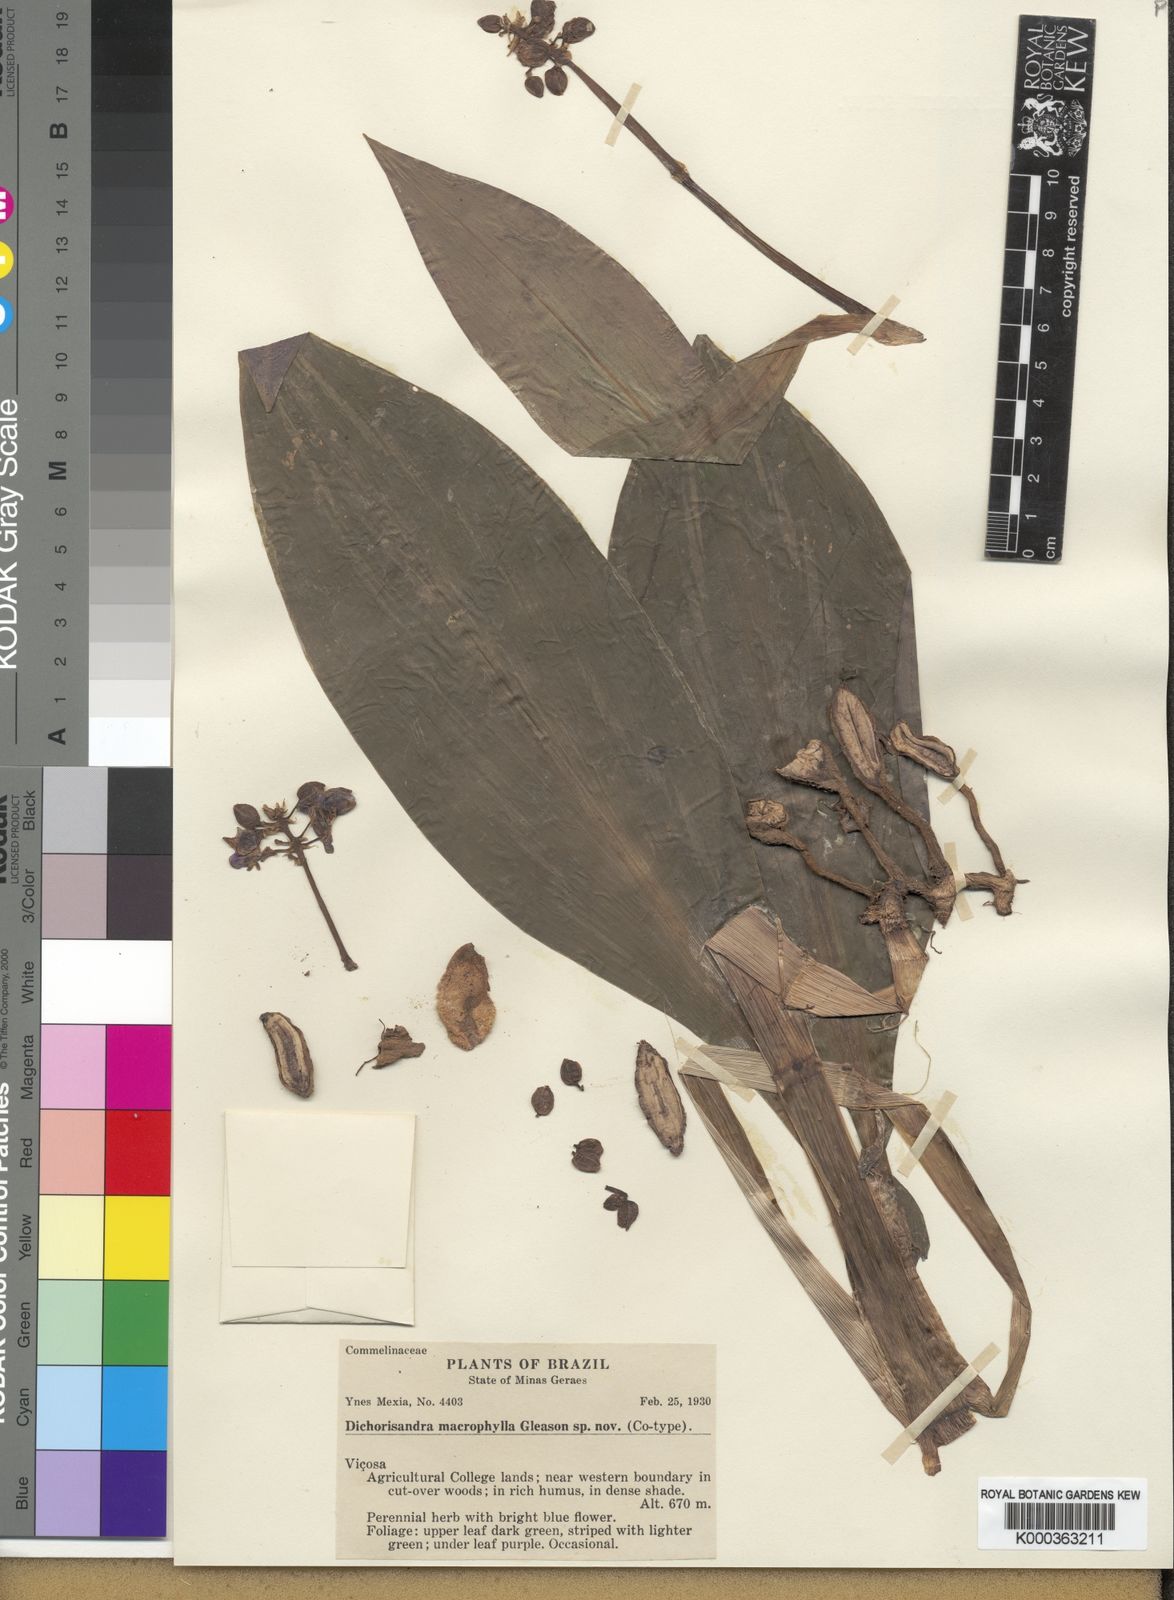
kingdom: Plantae
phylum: Tracheophyta
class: Liliopsida
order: Commelinales
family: Commelinaceae
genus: Dichorisandra
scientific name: Dichorisandra albomarginata
